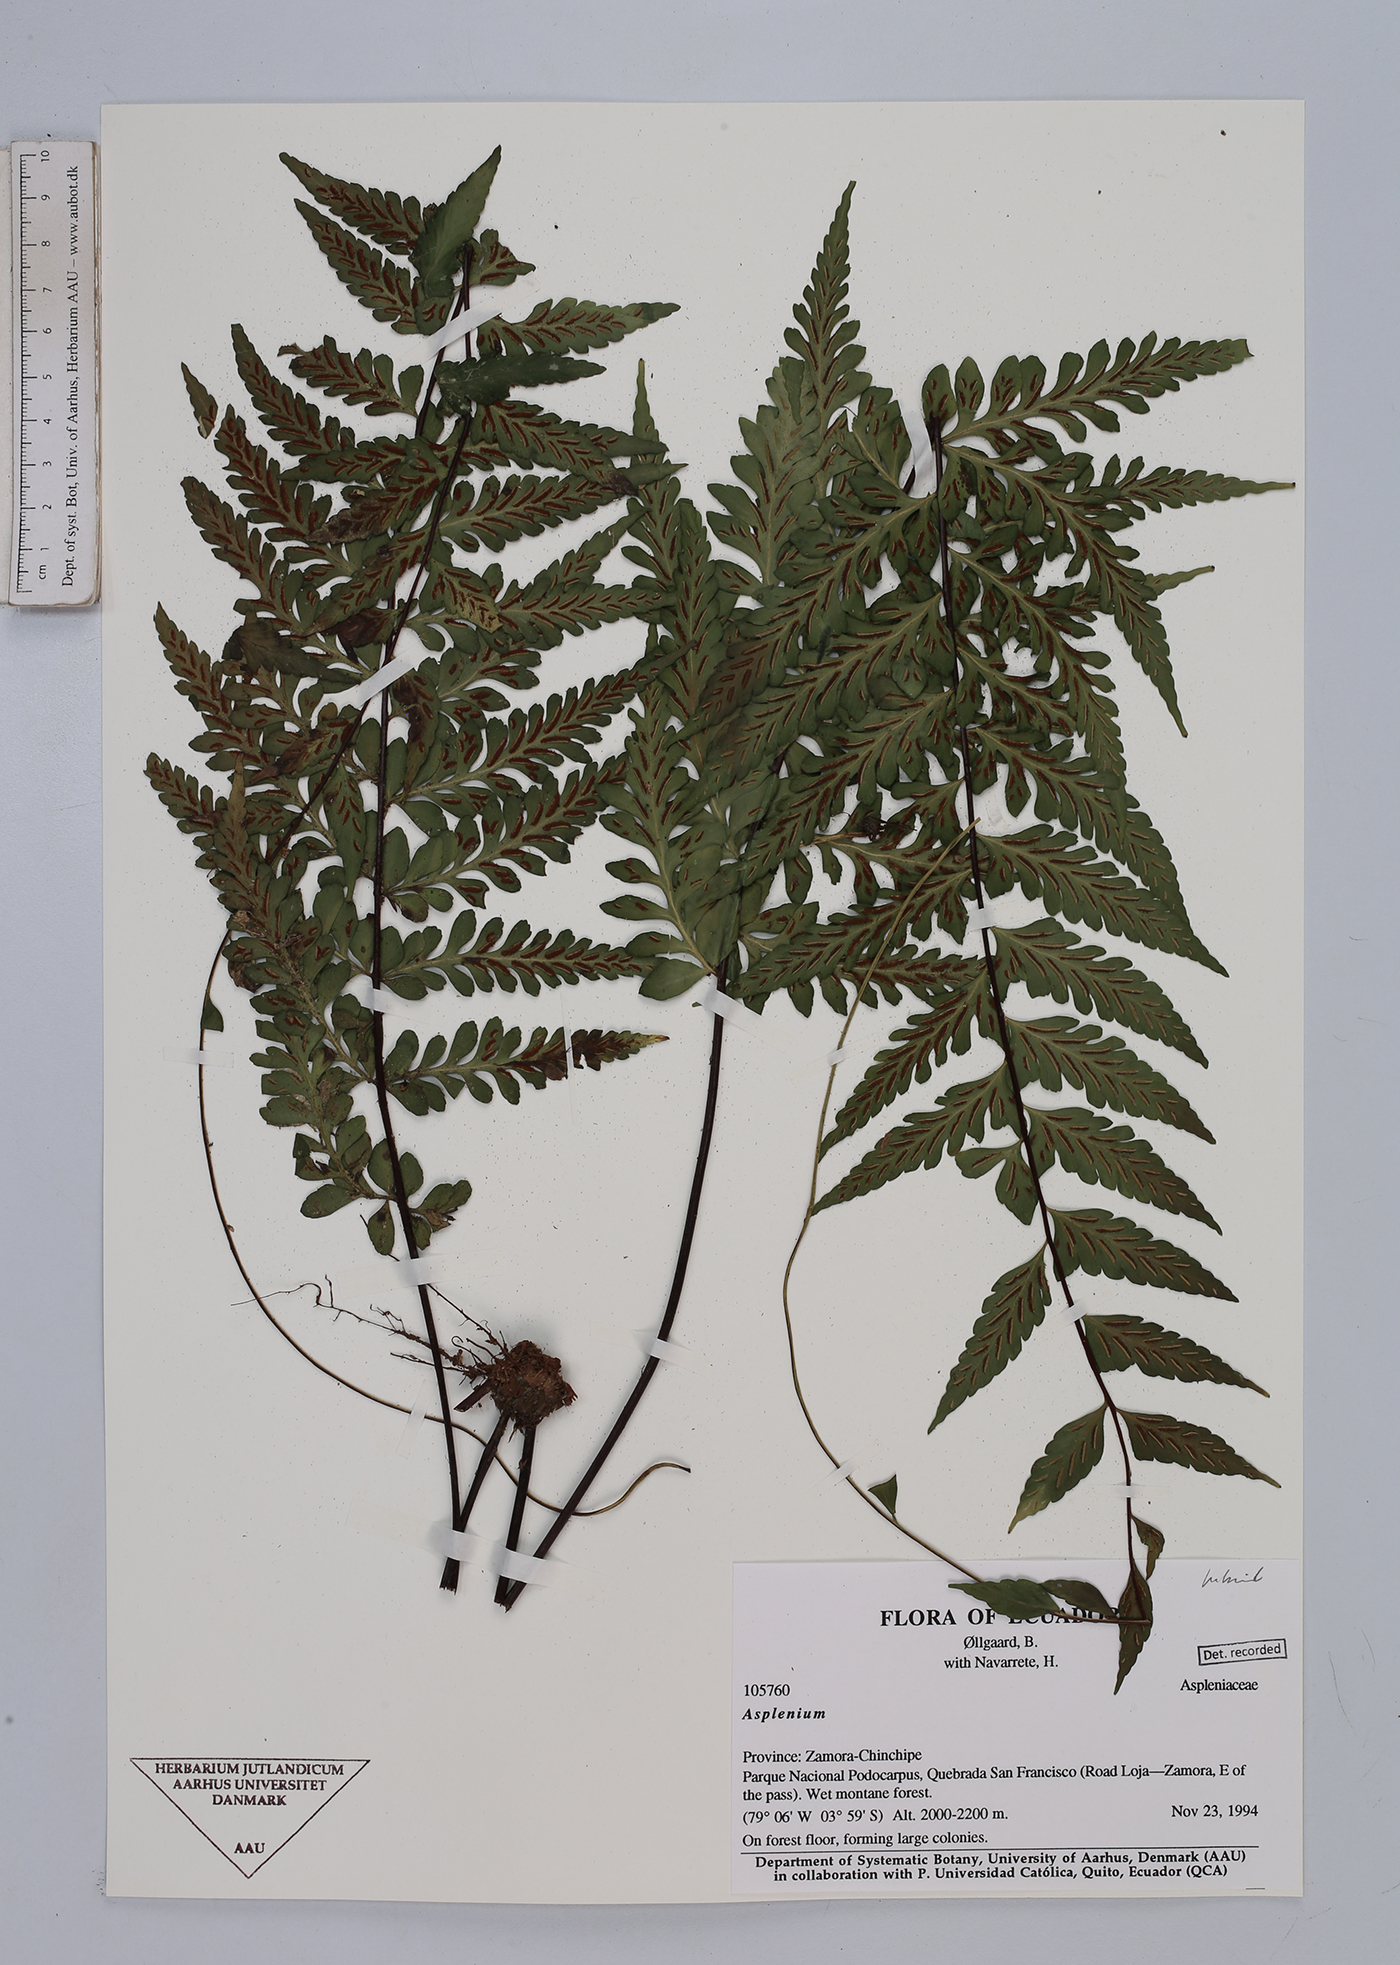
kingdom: Plantae
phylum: Tracheophyta
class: Polypodiopsida
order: Polypodiales
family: Aspleniaceae
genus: Asplenium
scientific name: Asplenium
